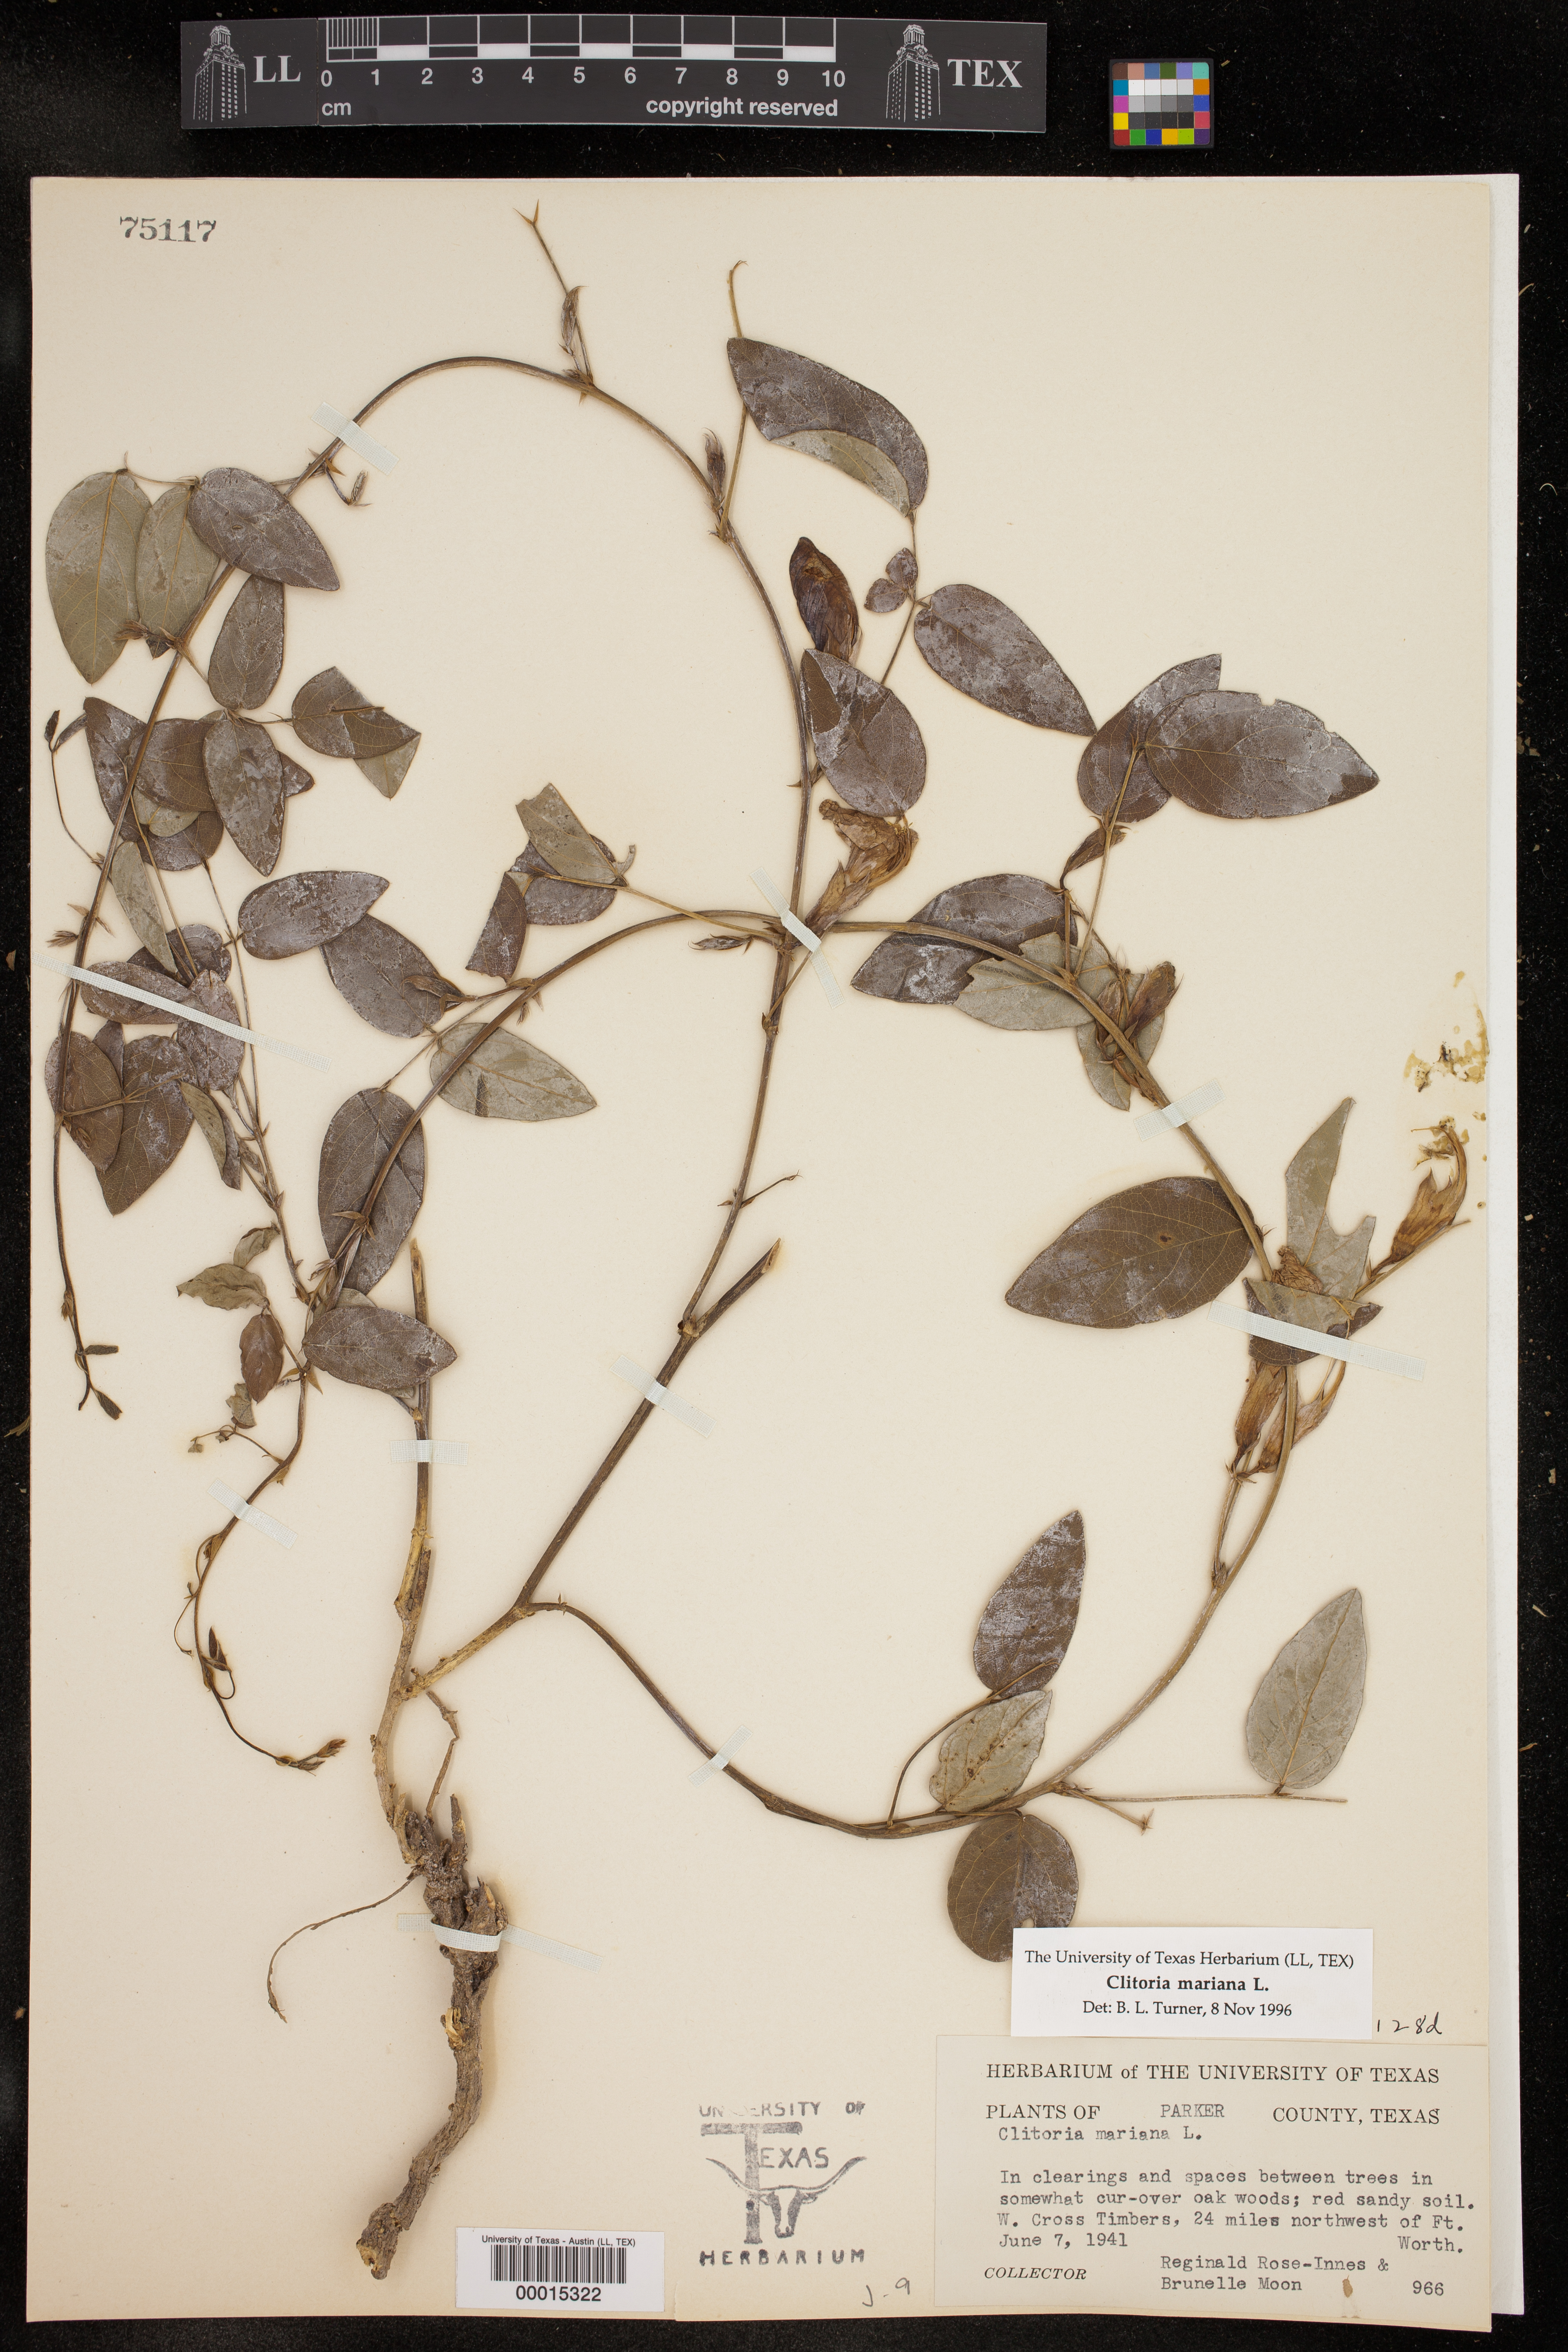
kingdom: Plantae
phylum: Tracheophyta
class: Magnoliopsida
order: Fabales
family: Fabaceae
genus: Clitoria
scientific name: Clitoria mariana
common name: Butterfly-pea
